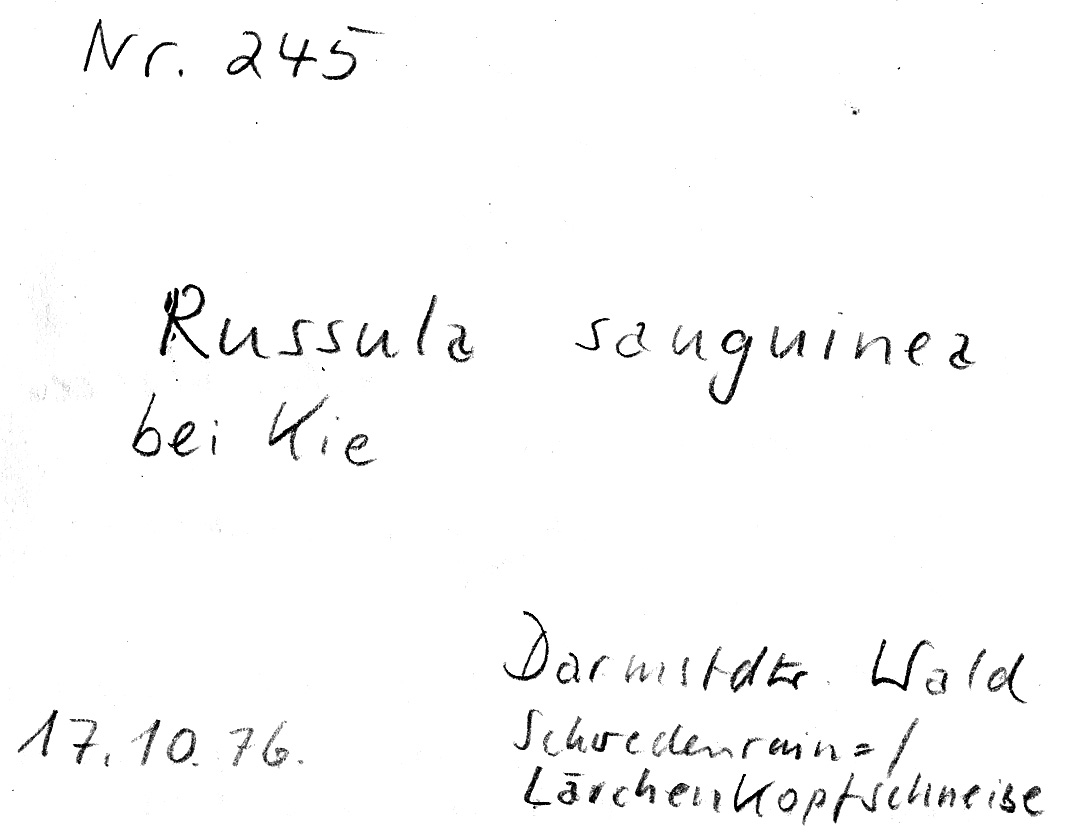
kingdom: Fungi
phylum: Basidiomycota
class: Agaricomycetes
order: Russulales
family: Russulaceae
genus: Russula
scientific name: Russula sanguinea
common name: Bloody brittlegill
